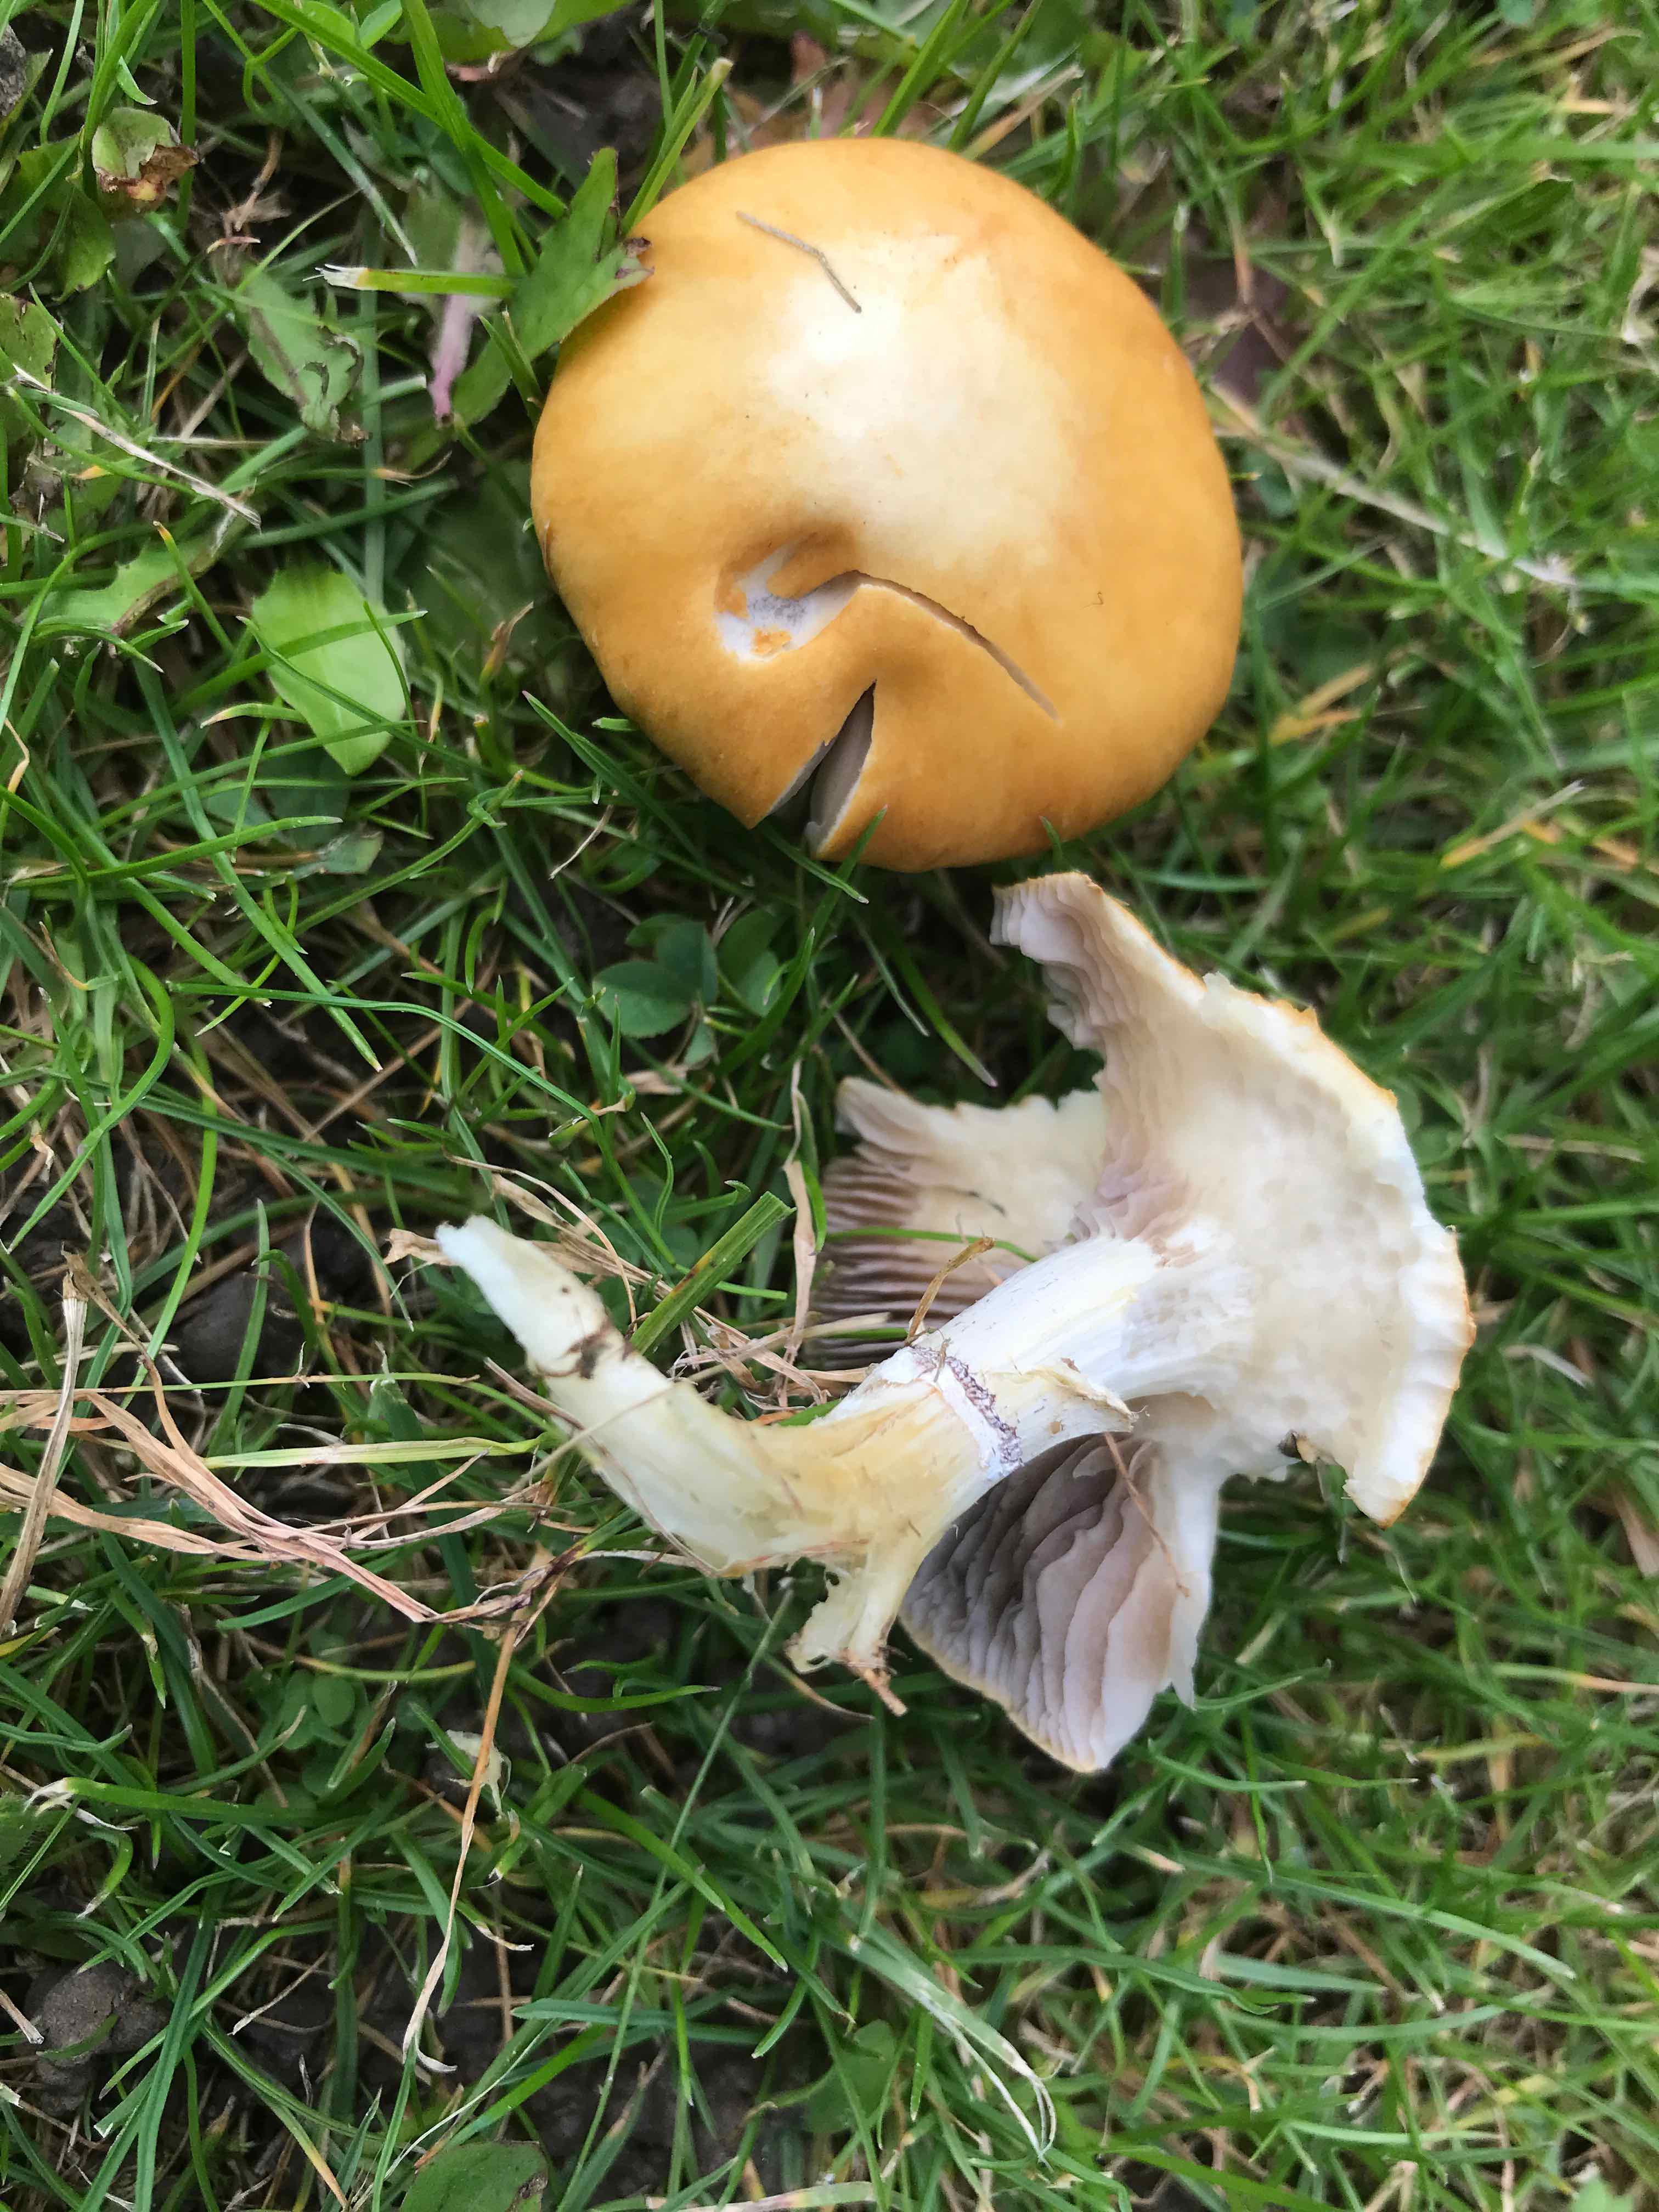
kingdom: Fungi
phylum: Basidiomycota
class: Agaricomycetes
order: Agaricales
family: Hymenogastraceae
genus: Psilocybe
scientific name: Psilocybe coronilla
